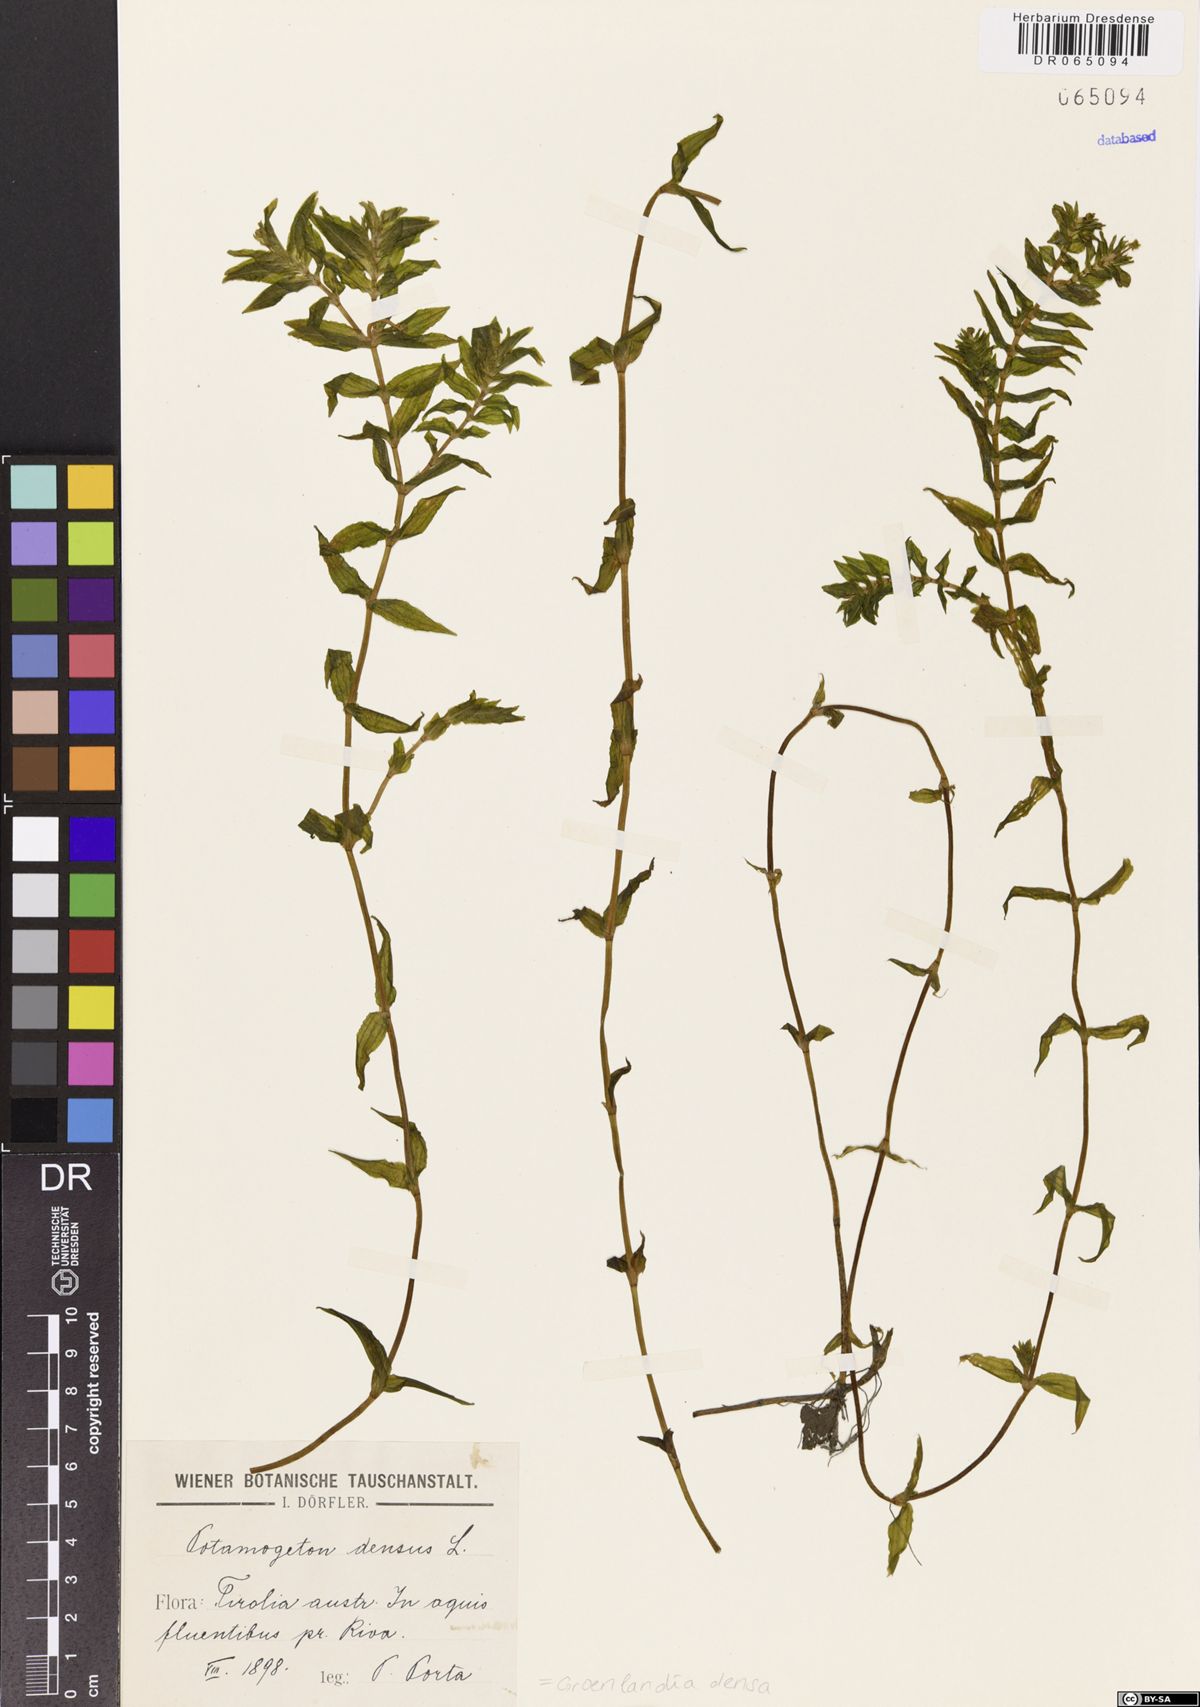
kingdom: Plantae
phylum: Tracheophyta
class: Liliopsida
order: Alismatales
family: Potamogetonaceae
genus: Groenlandia
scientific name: Groenlandia densa
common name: Opposite-leaved pondweed
